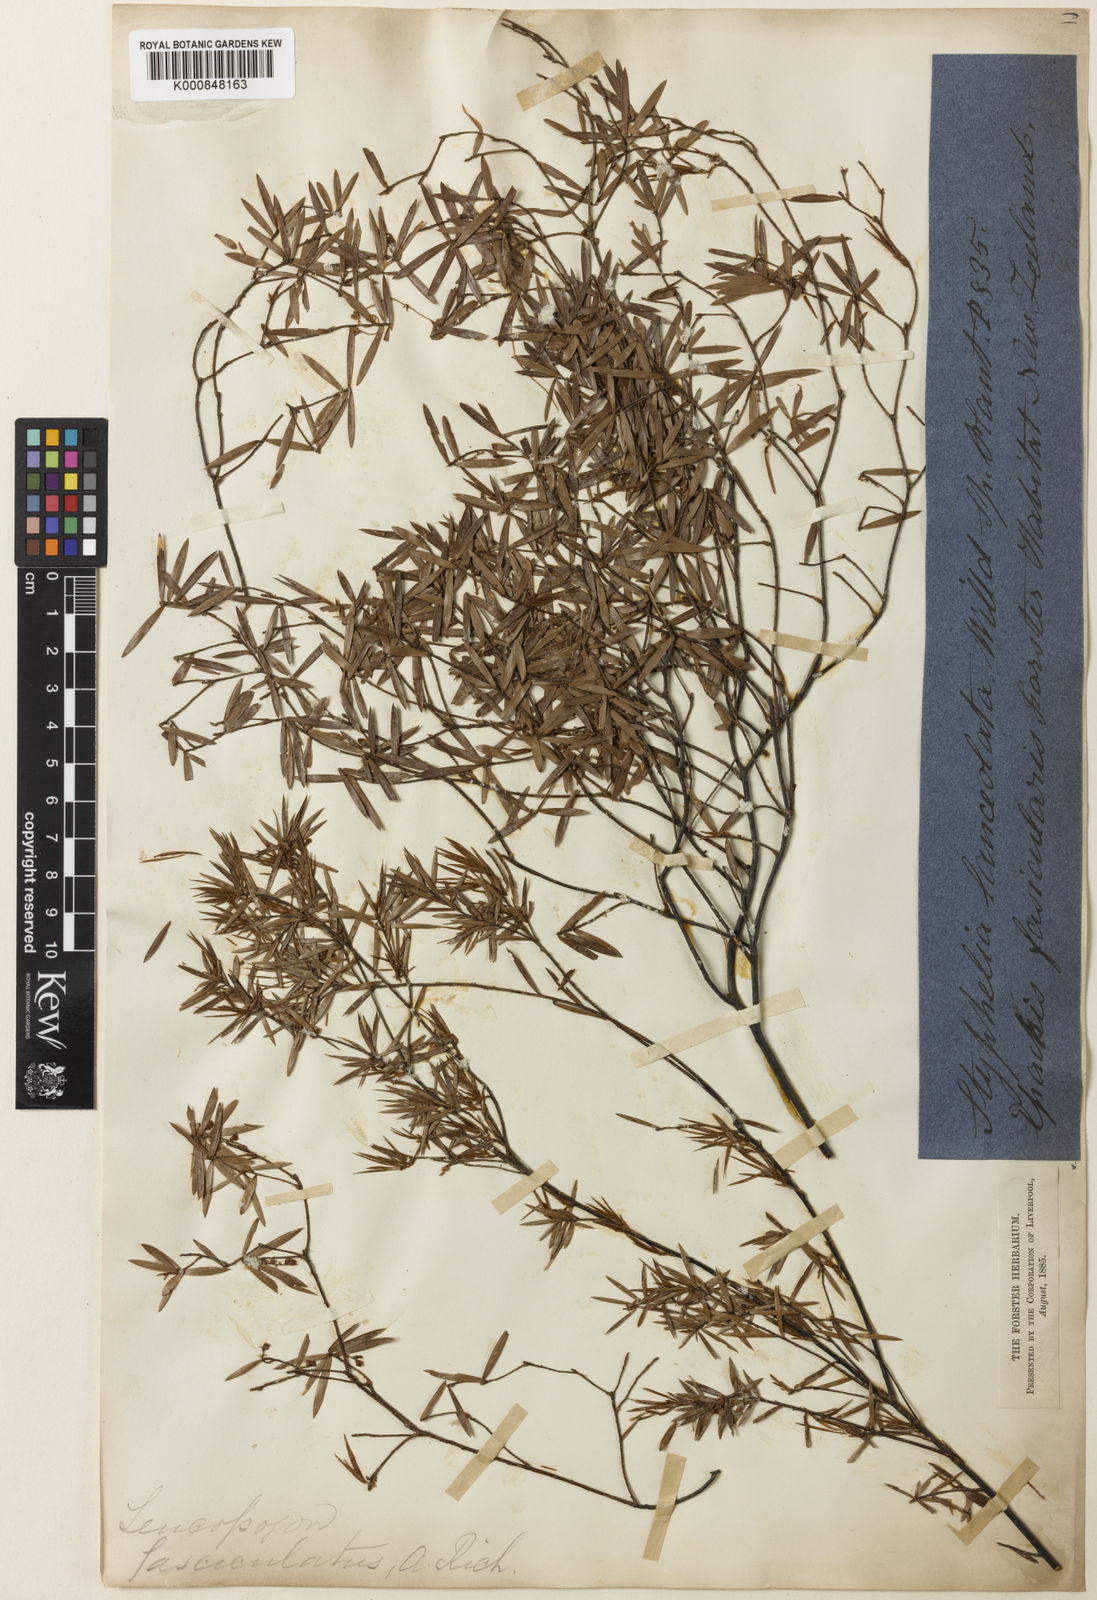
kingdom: Plantae
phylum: Tracheophyta
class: Magnoliopsida
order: Ericales
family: Ericaceae
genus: Leucopogon
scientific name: Leucopogon fasciculatus
